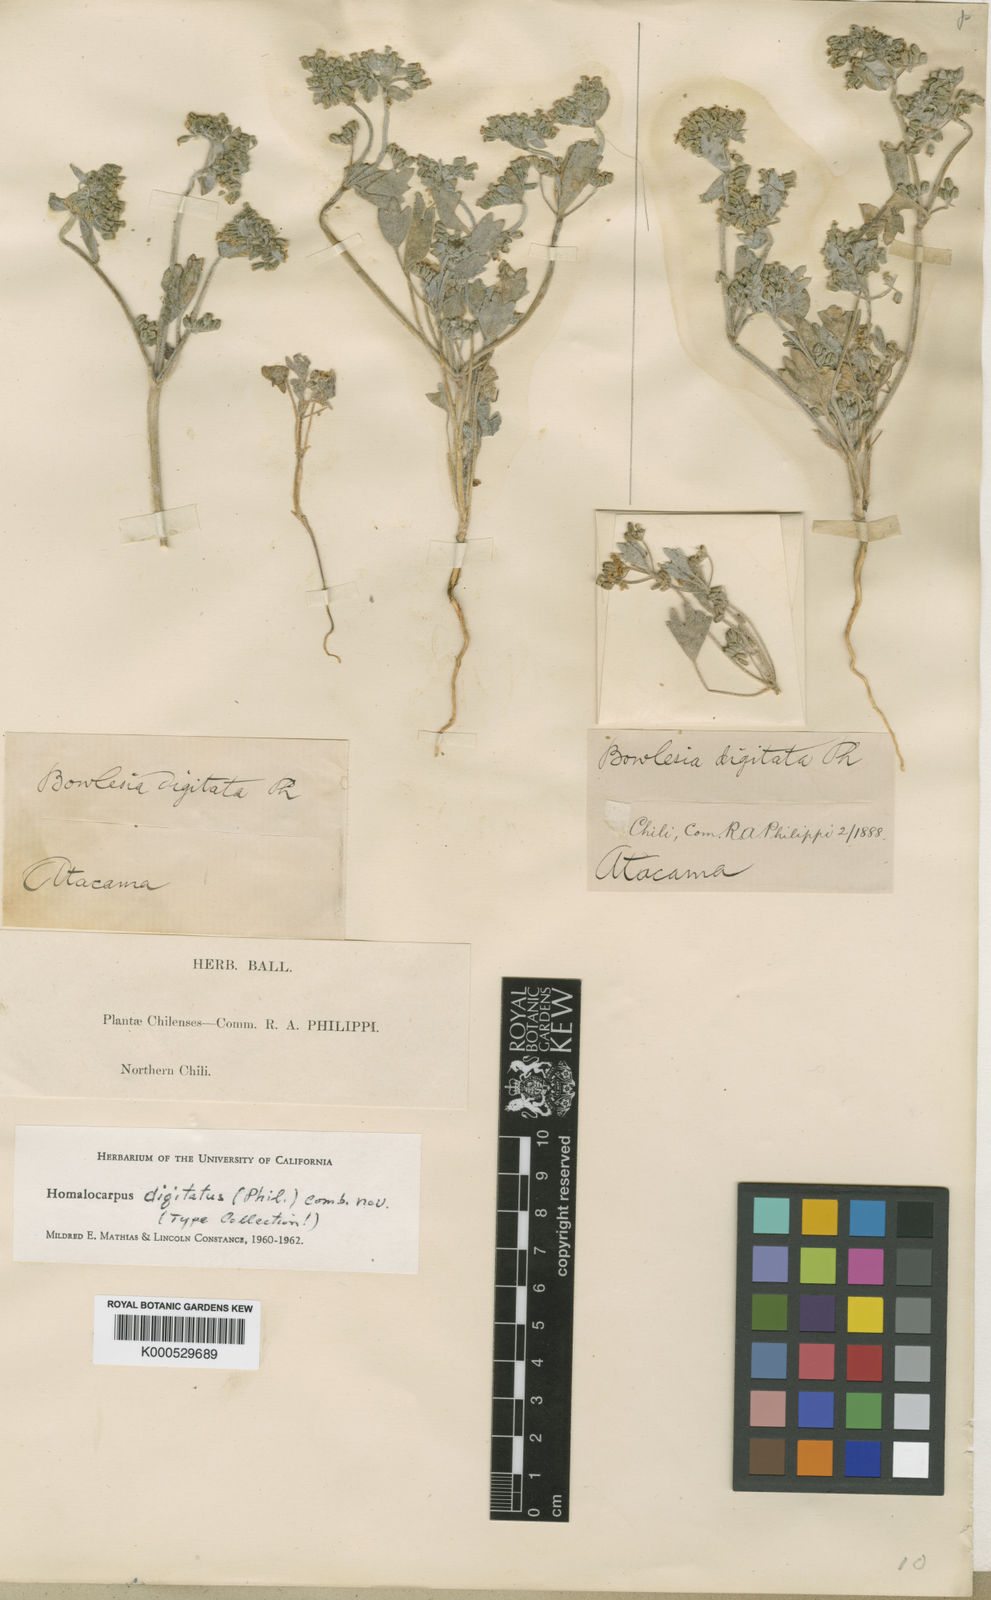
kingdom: Plantae
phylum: Tracheophyta
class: Magnoliopsida
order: Apiales
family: Apiaceae
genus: Homalocarpus
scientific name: Homalocarpus digitatus
